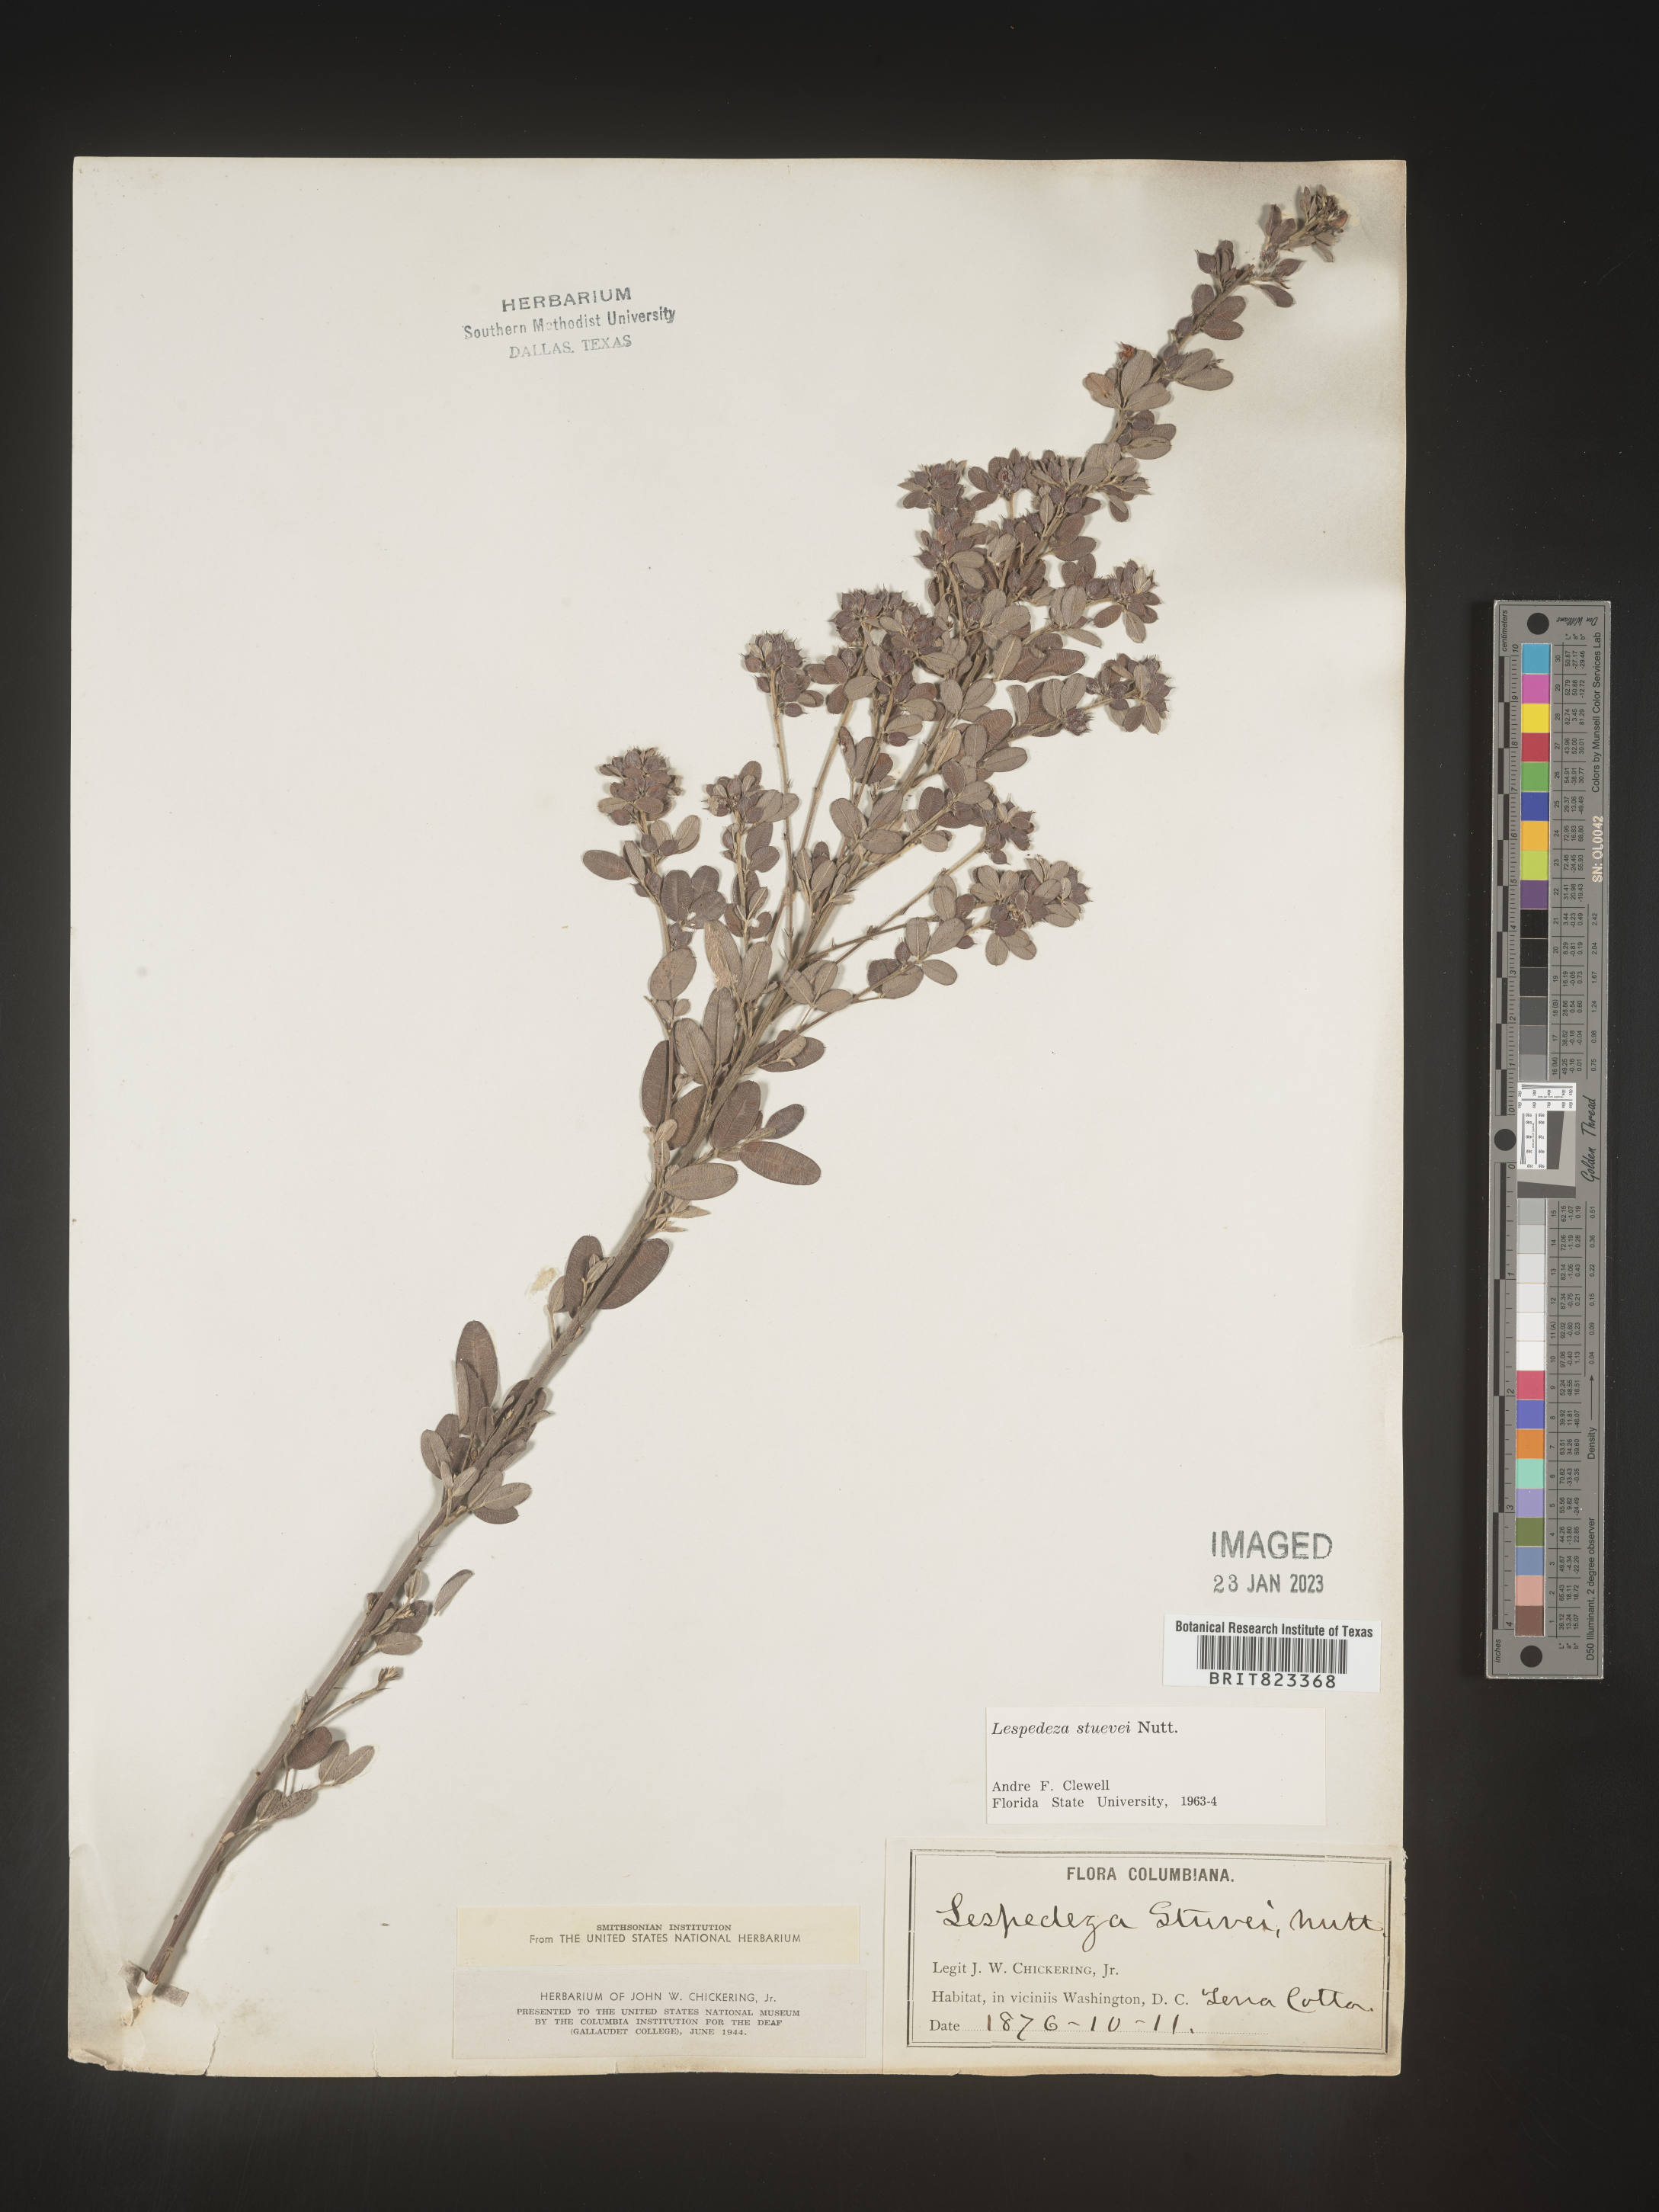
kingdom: Plantae
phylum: Tracheophyta
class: Magnoliopsida
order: Fabales
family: Fabaceae
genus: Lespedeza
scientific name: Lespedeza stuevei
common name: Tall bush-clover
